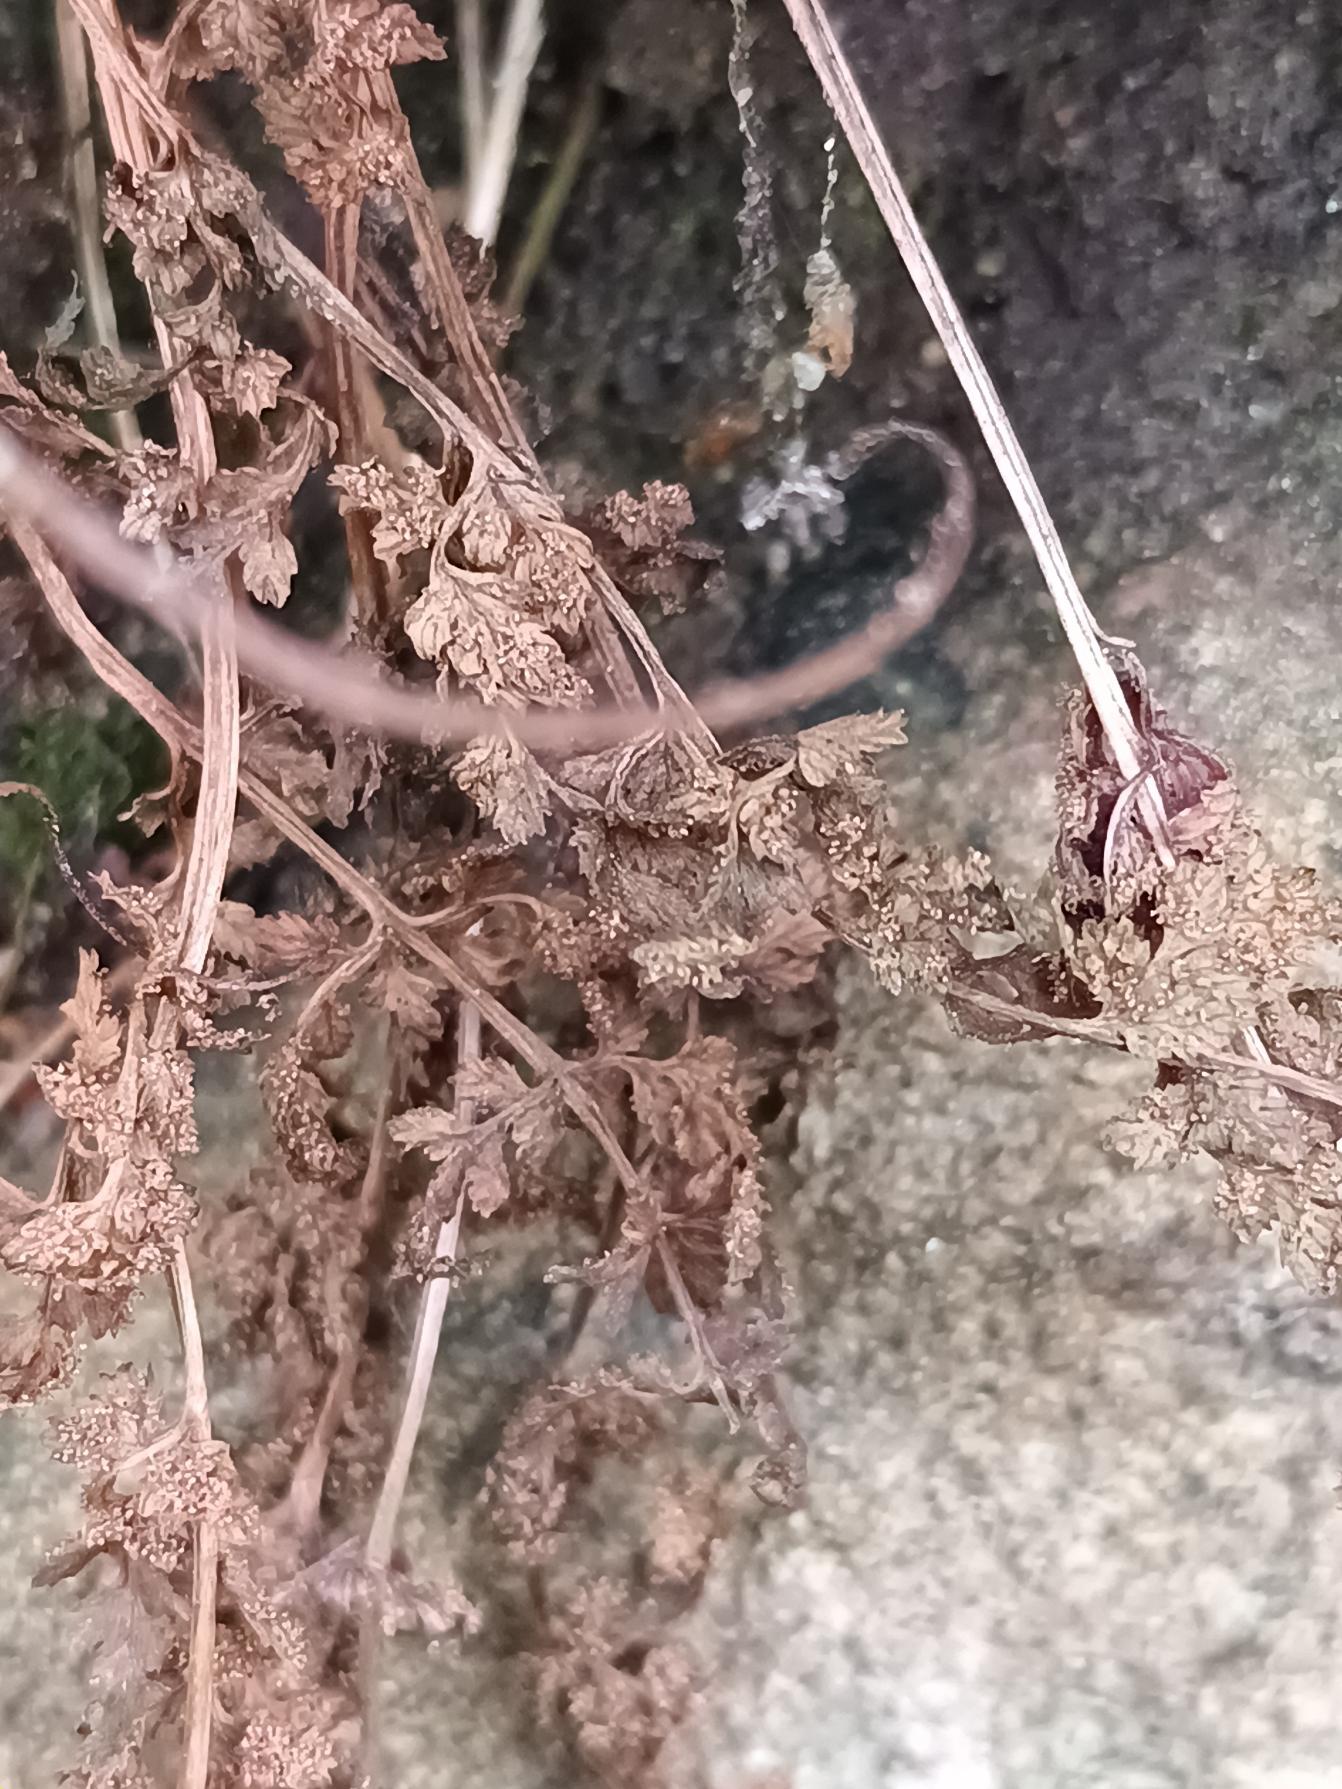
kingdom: Plantae
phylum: Tracheophyta
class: Polypodiopsida
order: Polypodiales
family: Cystopteridaceae
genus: Cystopteris
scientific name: Cystopteris fragilis
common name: Bægerbregne
